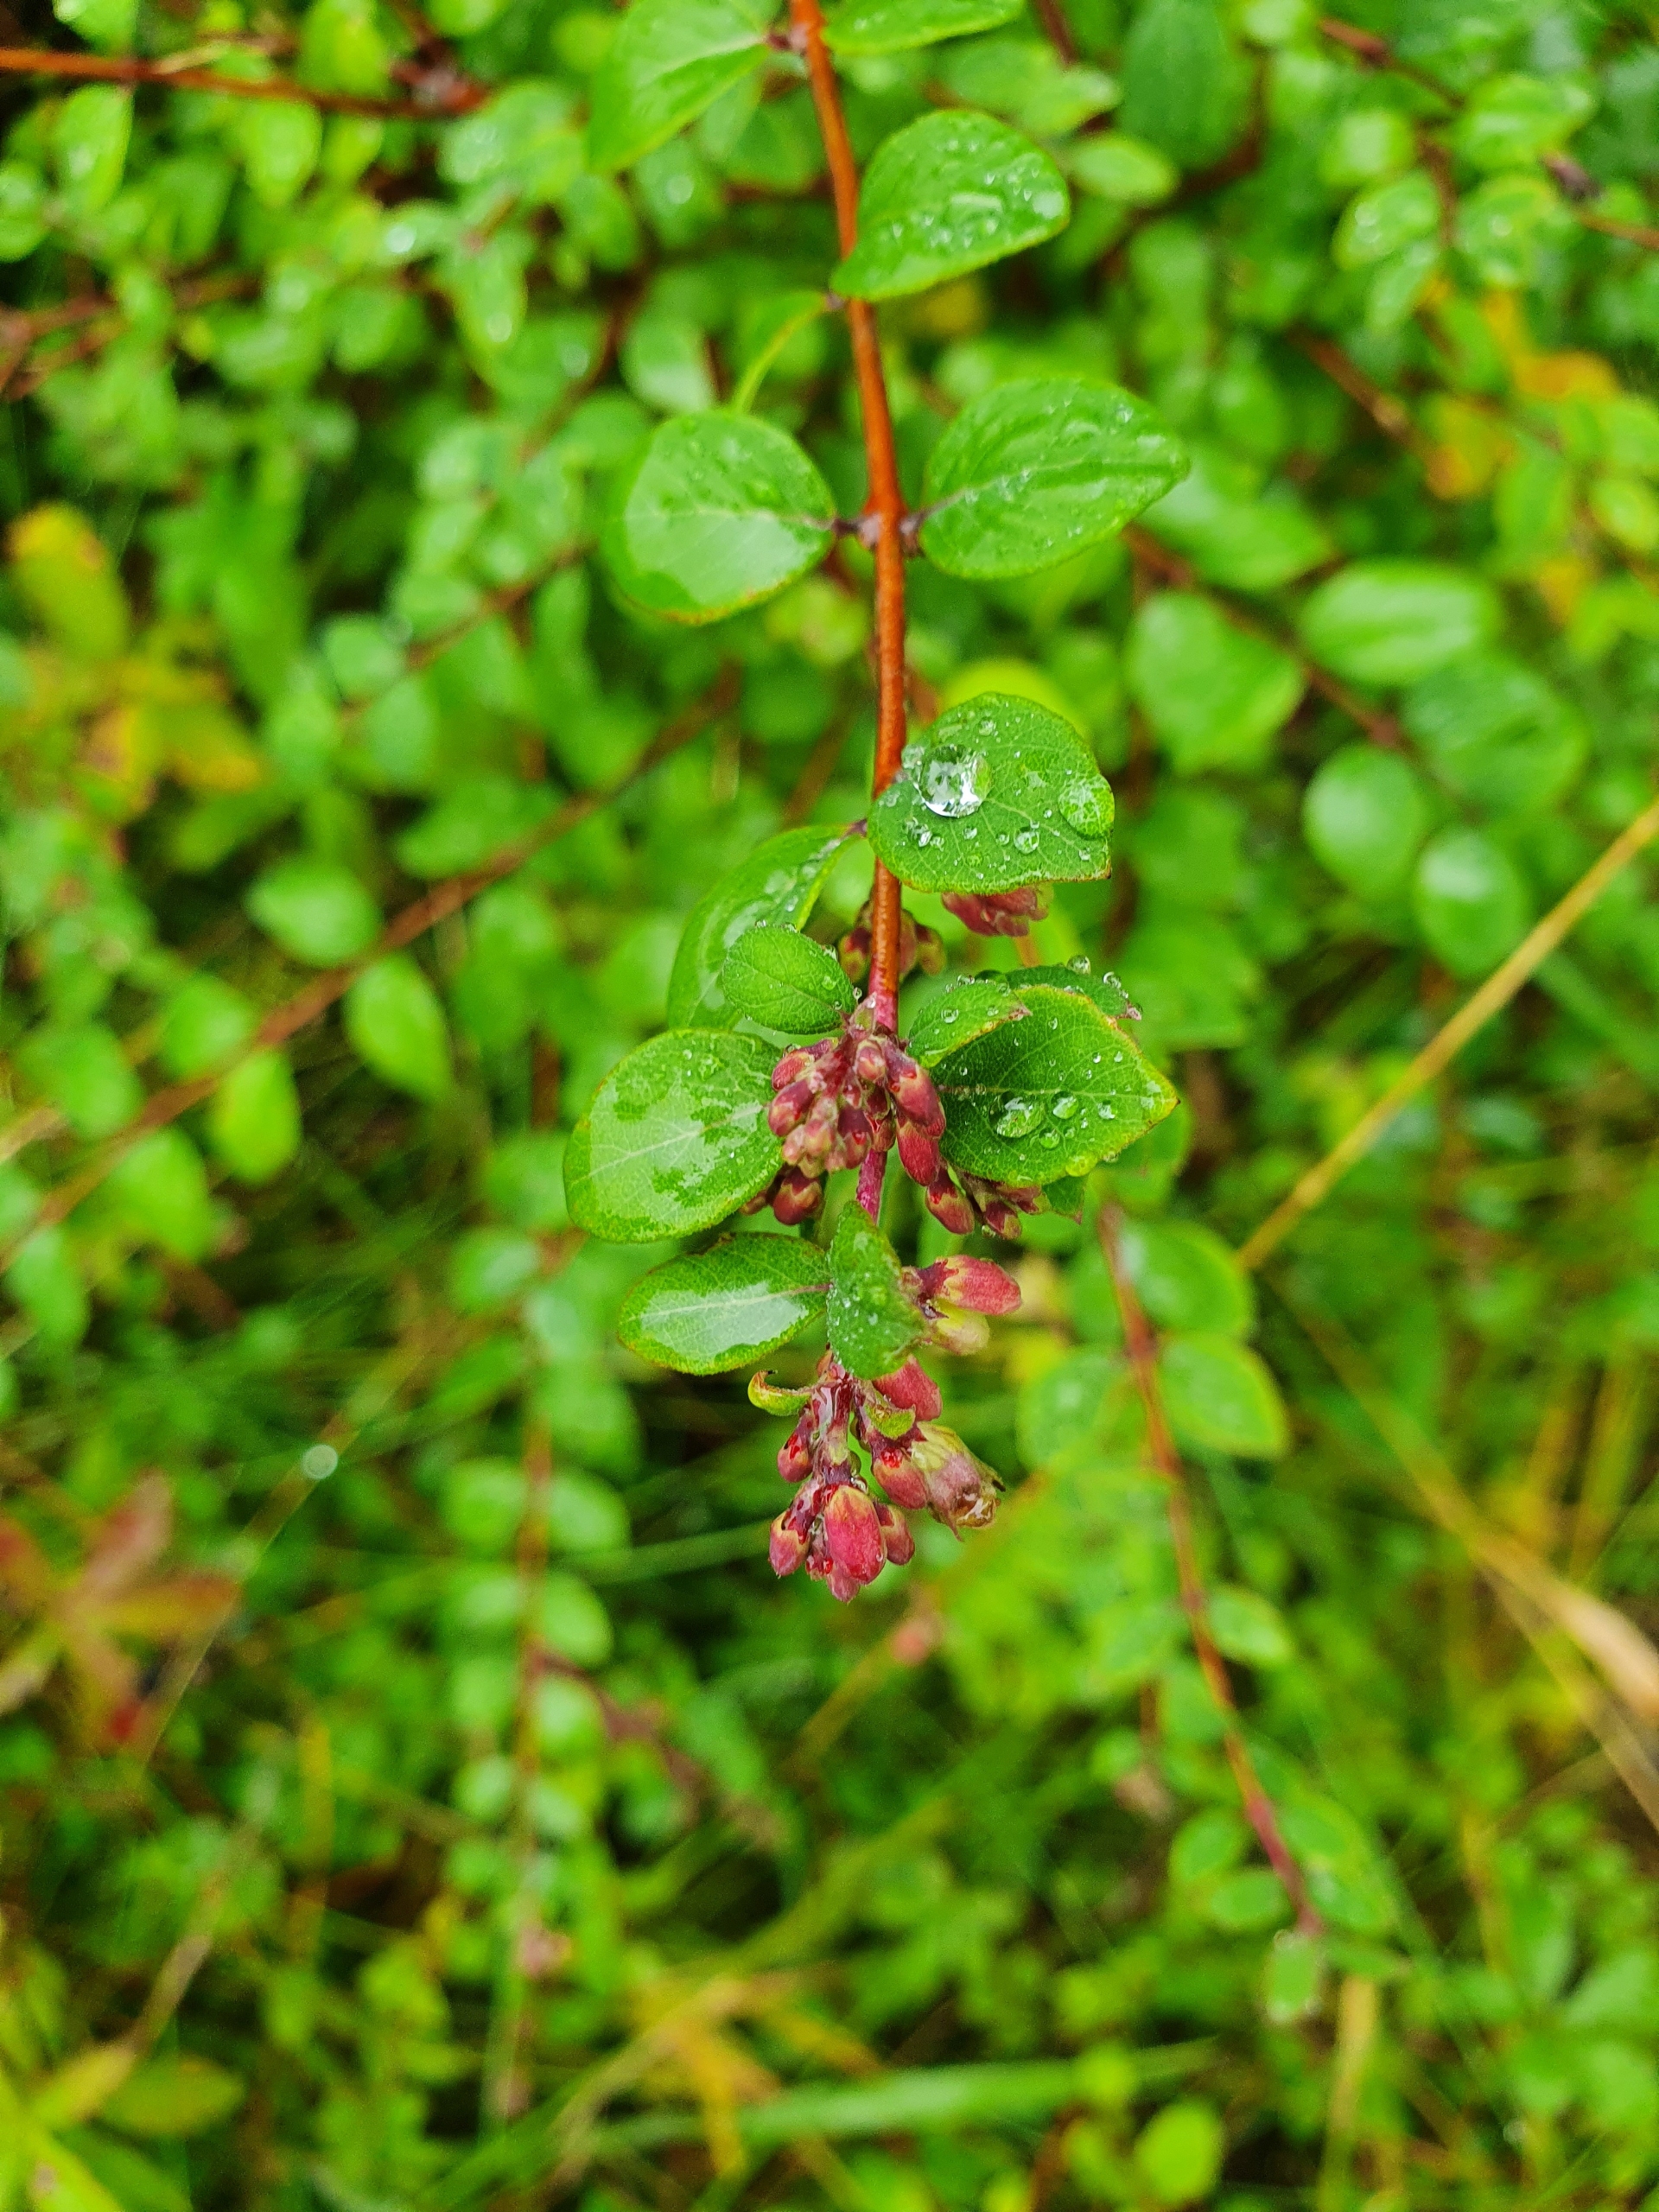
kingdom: Plantae
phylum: Tracheophyta
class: Magnoliopsida
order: Dipsacales
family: Caprifoliaceae
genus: Symphoricarpos
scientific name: Symphoricarpos chenaultii
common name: Rød snebær
